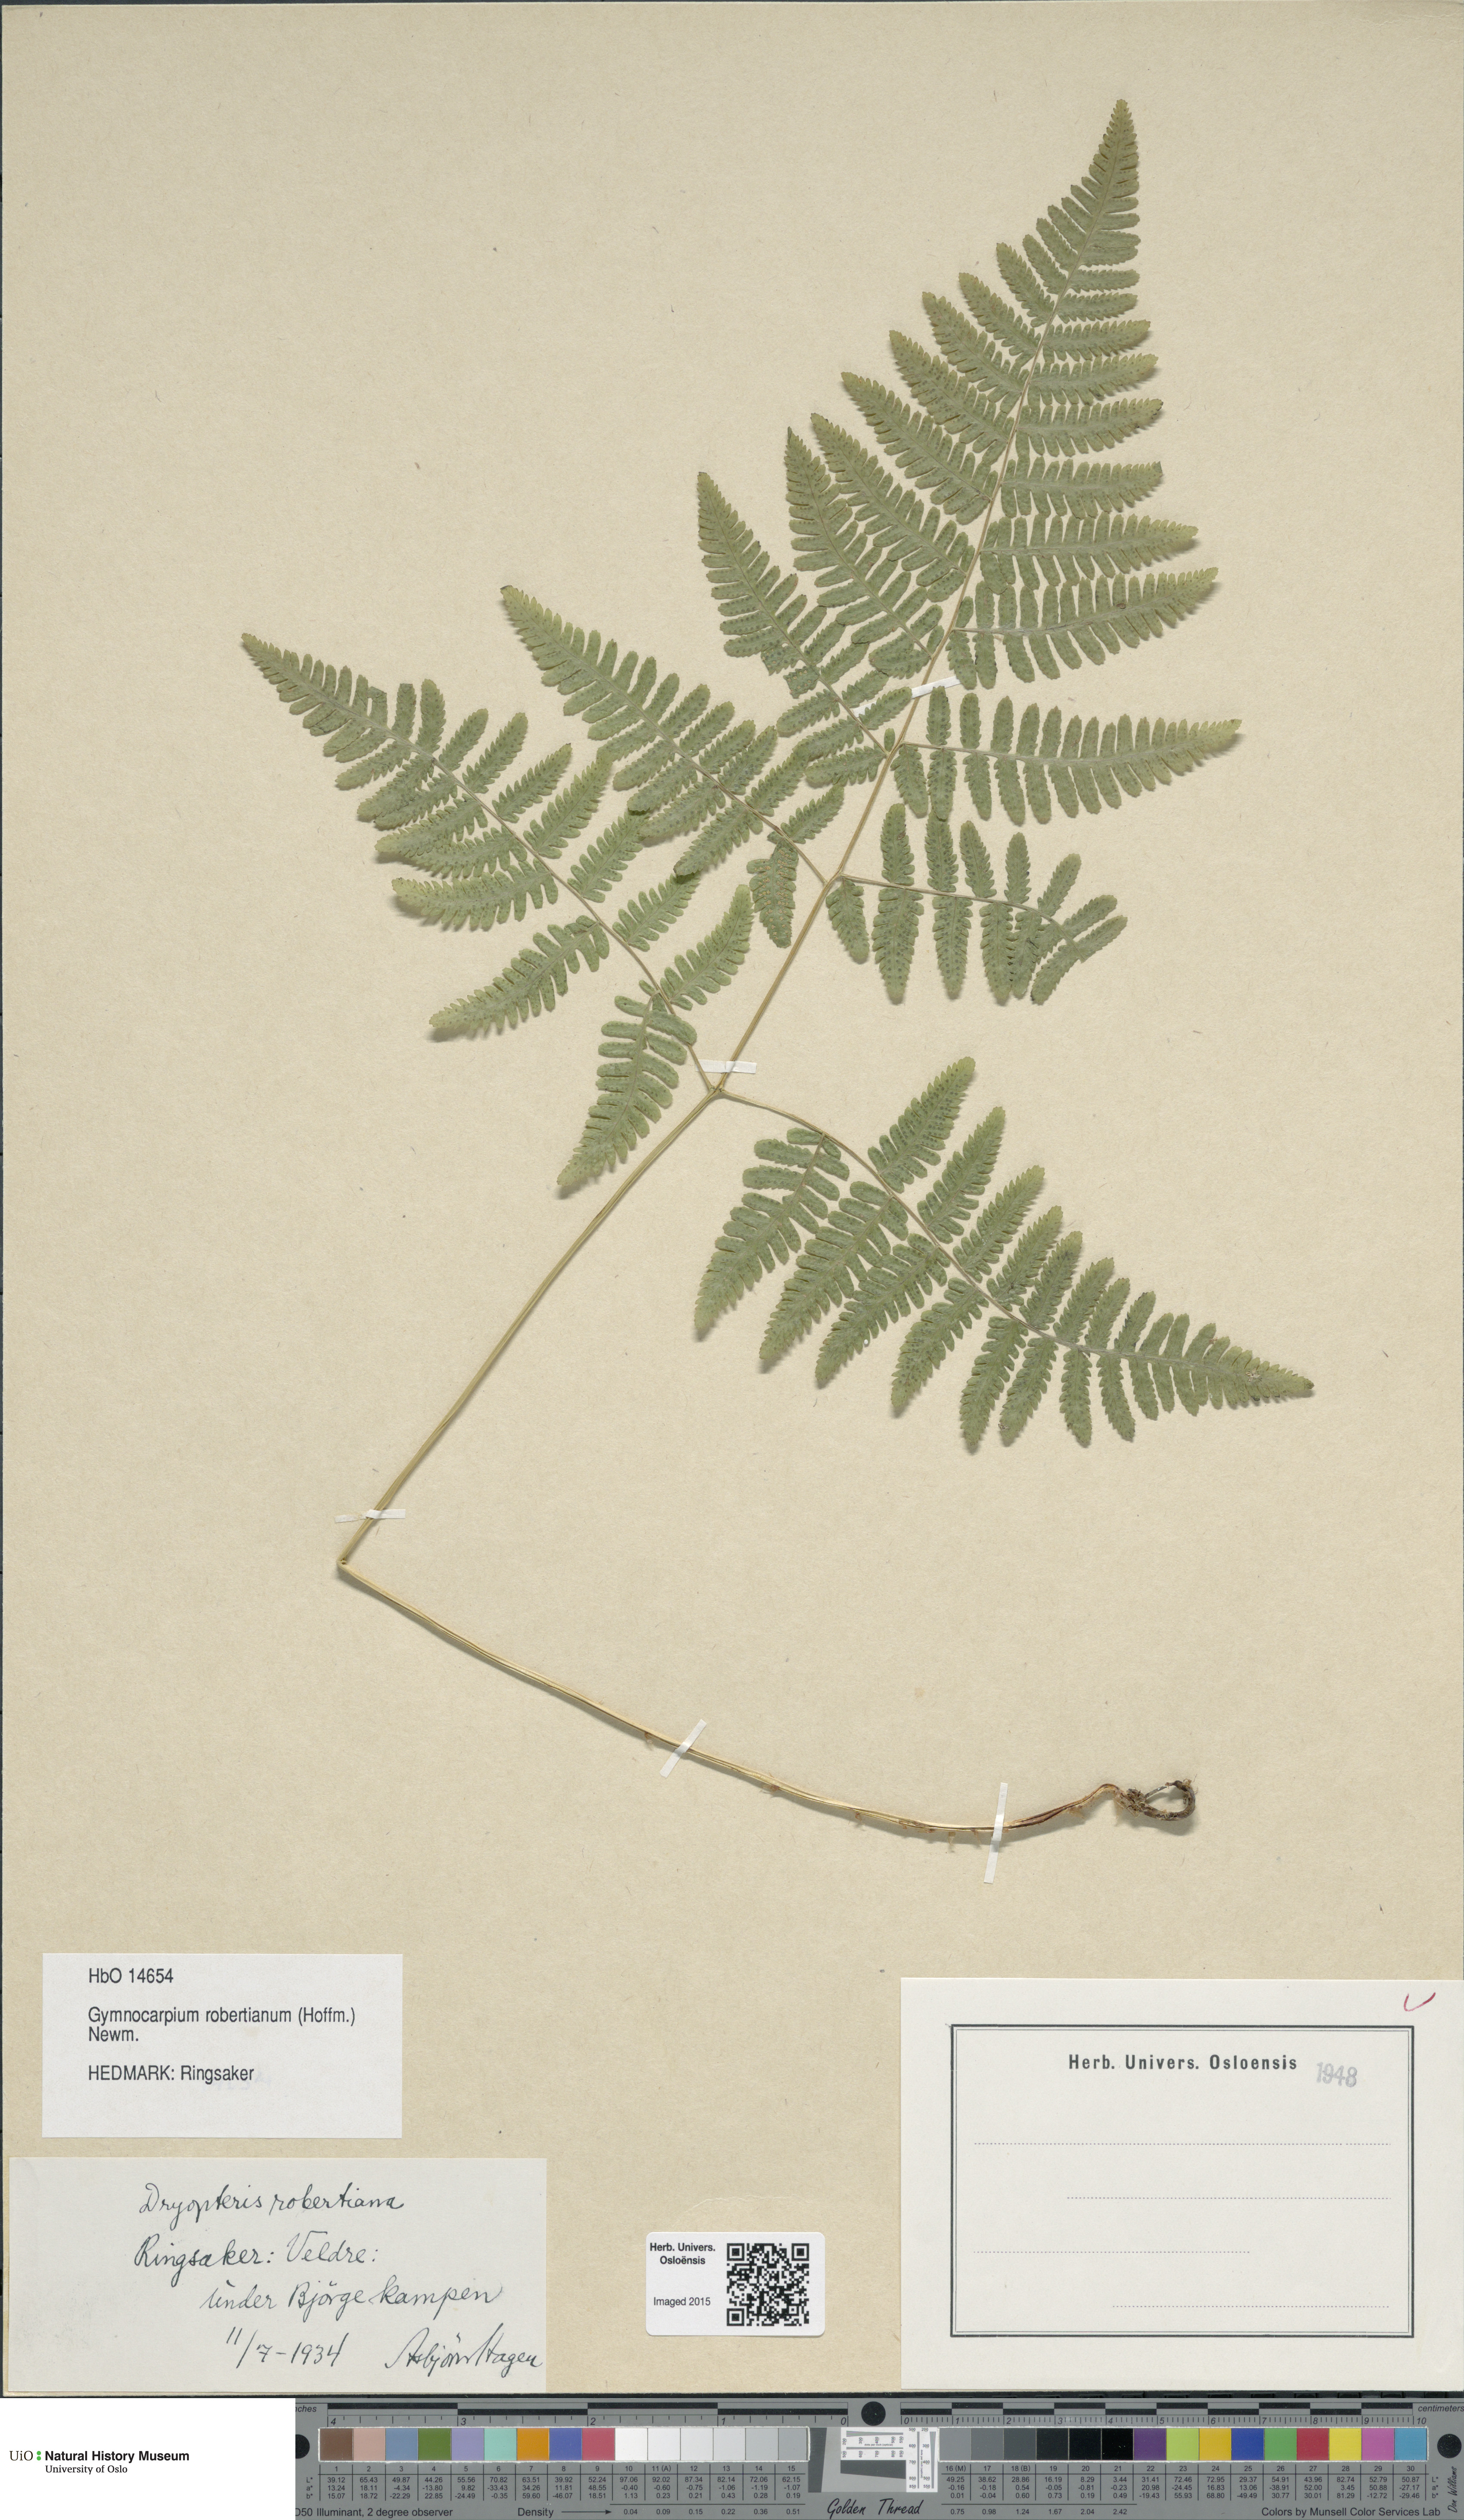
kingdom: Plantae
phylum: Tracheophyta
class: Polypodiopsida
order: Polypodiales
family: Cystopteridaceae
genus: Gymnocarpium
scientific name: Gymnocarpium robertianum
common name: Limestone fern
